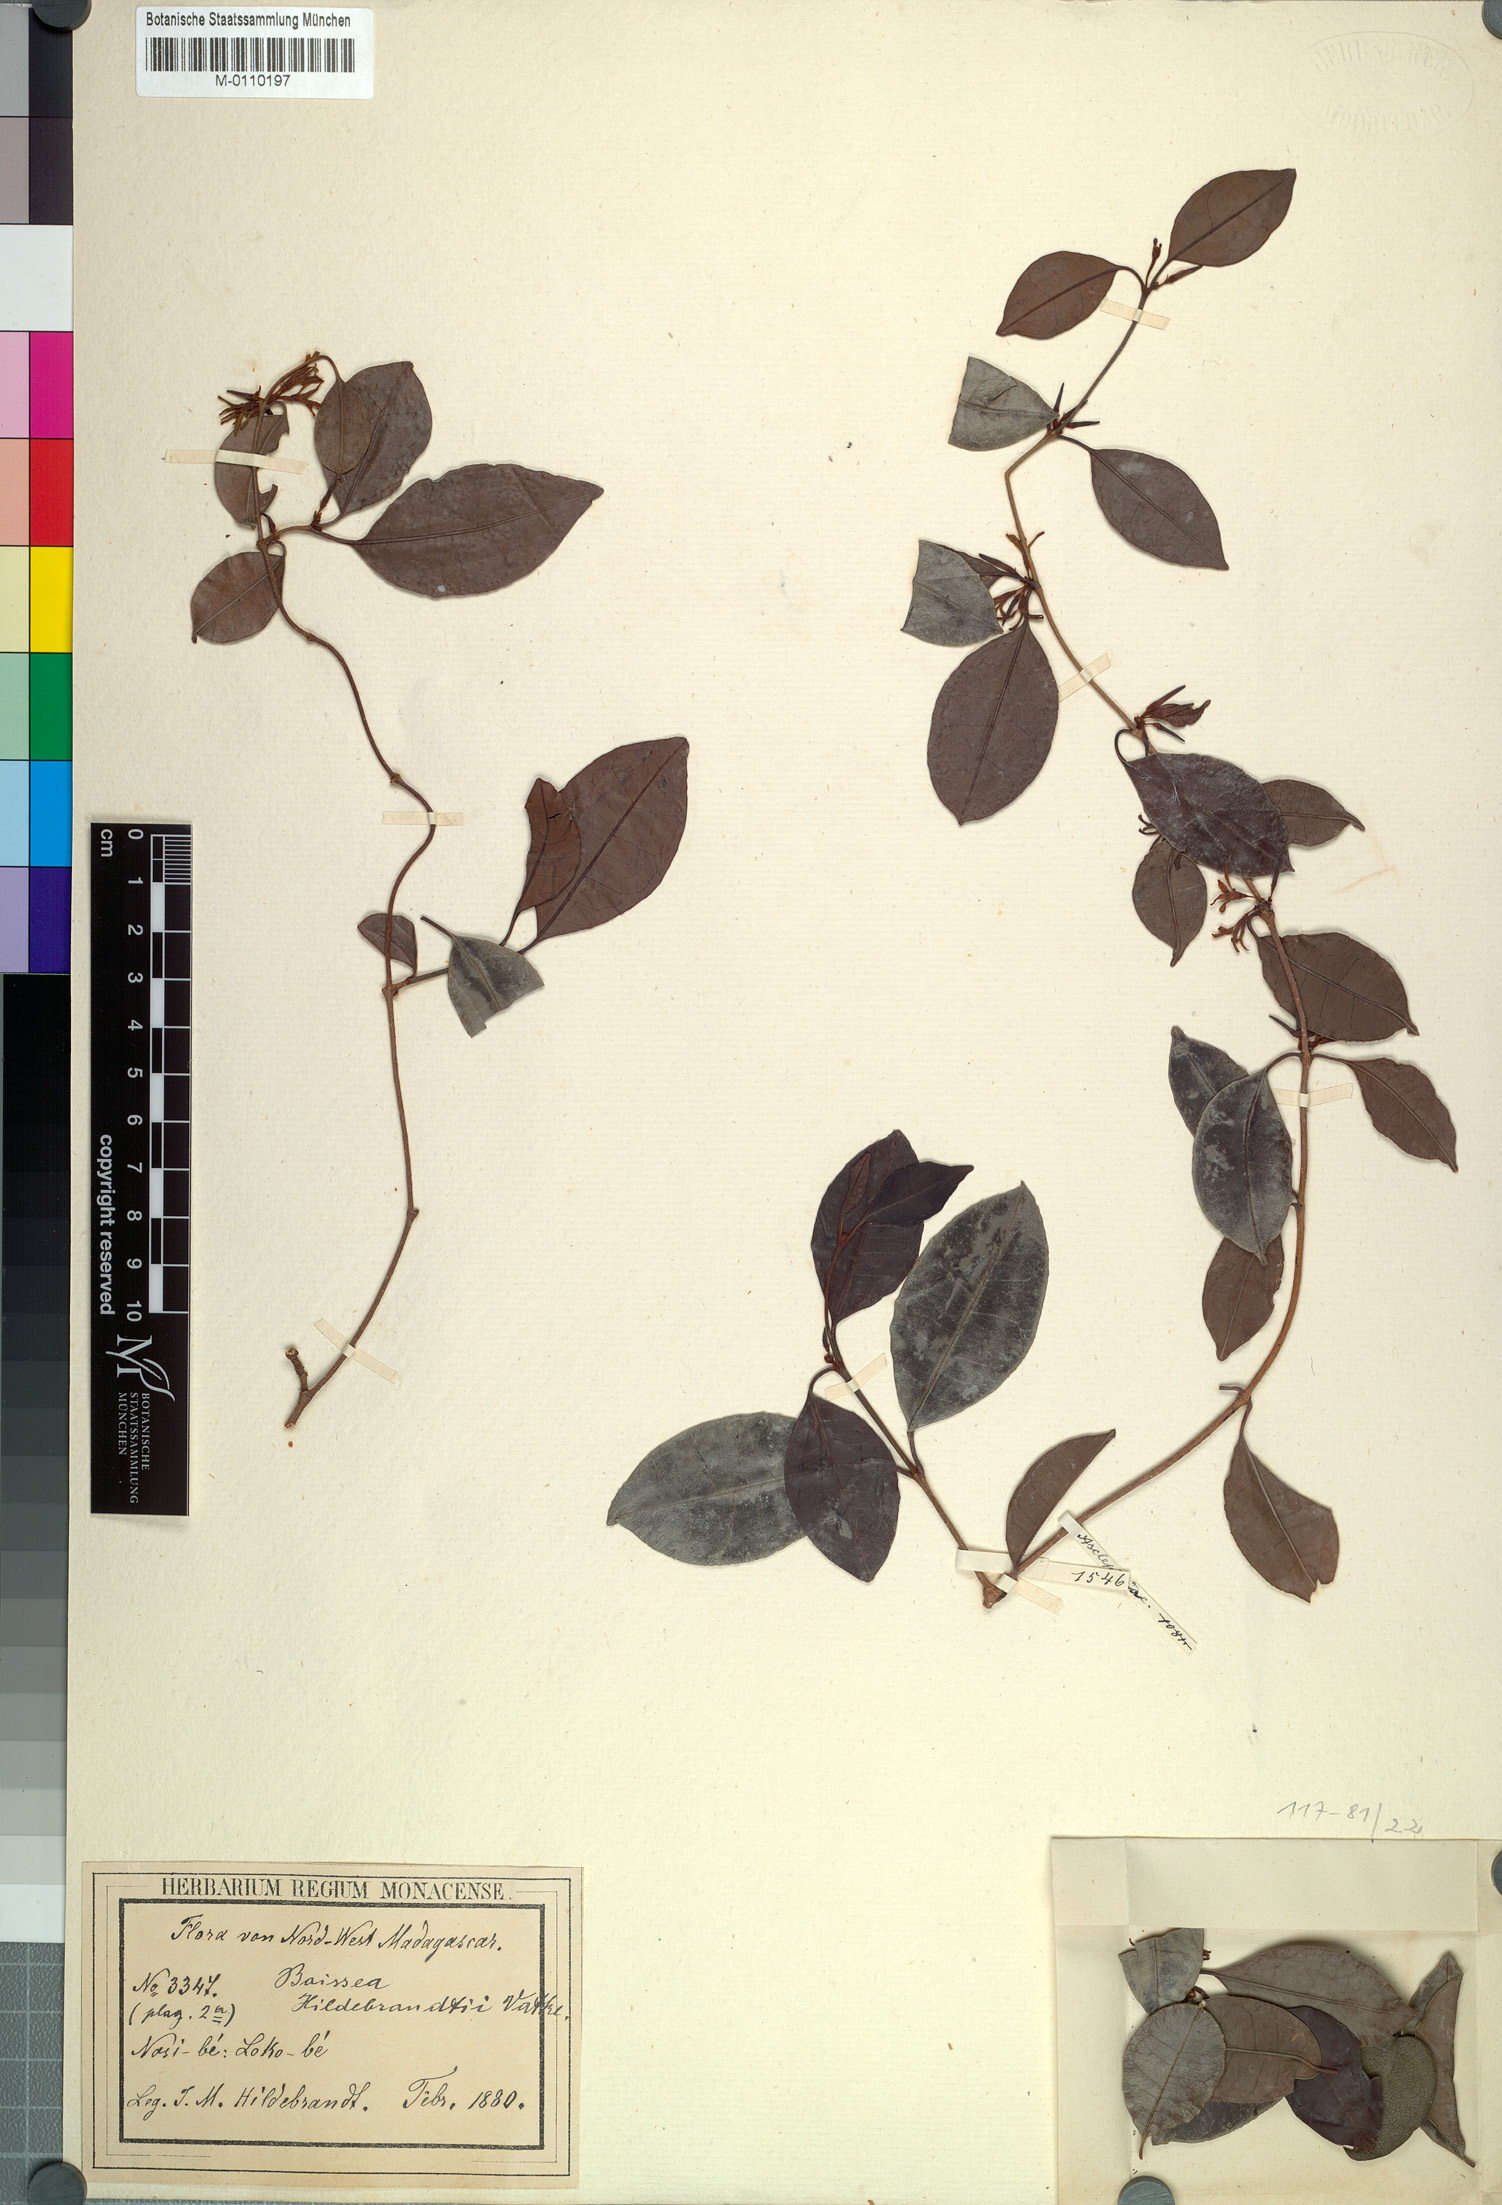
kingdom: Plantae
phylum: Tracheophyta
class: Magnoliopsida
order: Gentianales
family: Apocynaceae
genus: Toxocarpus
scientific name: Toxocarpus
